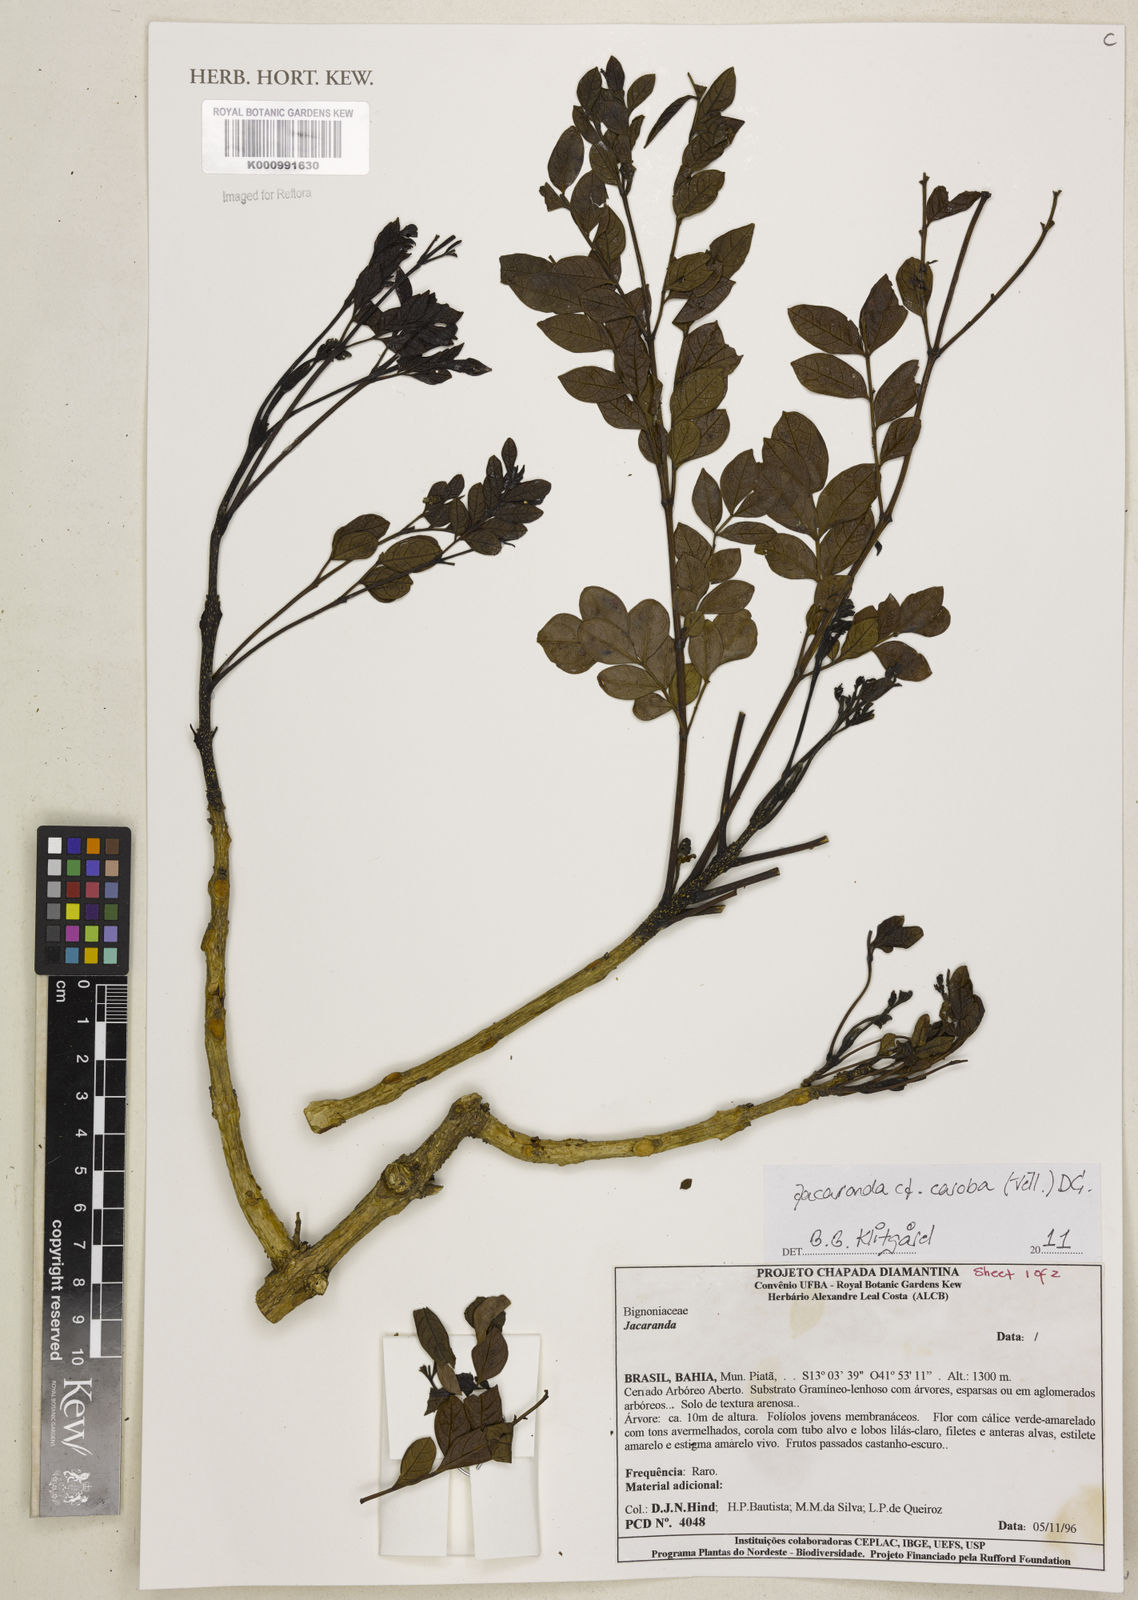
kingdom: Plantae
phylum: Tracheophyta
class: Magnoliopsida
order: Lamiales
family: Bignoniaceae
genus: Jacaranda
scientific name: Jacaranda caroba
